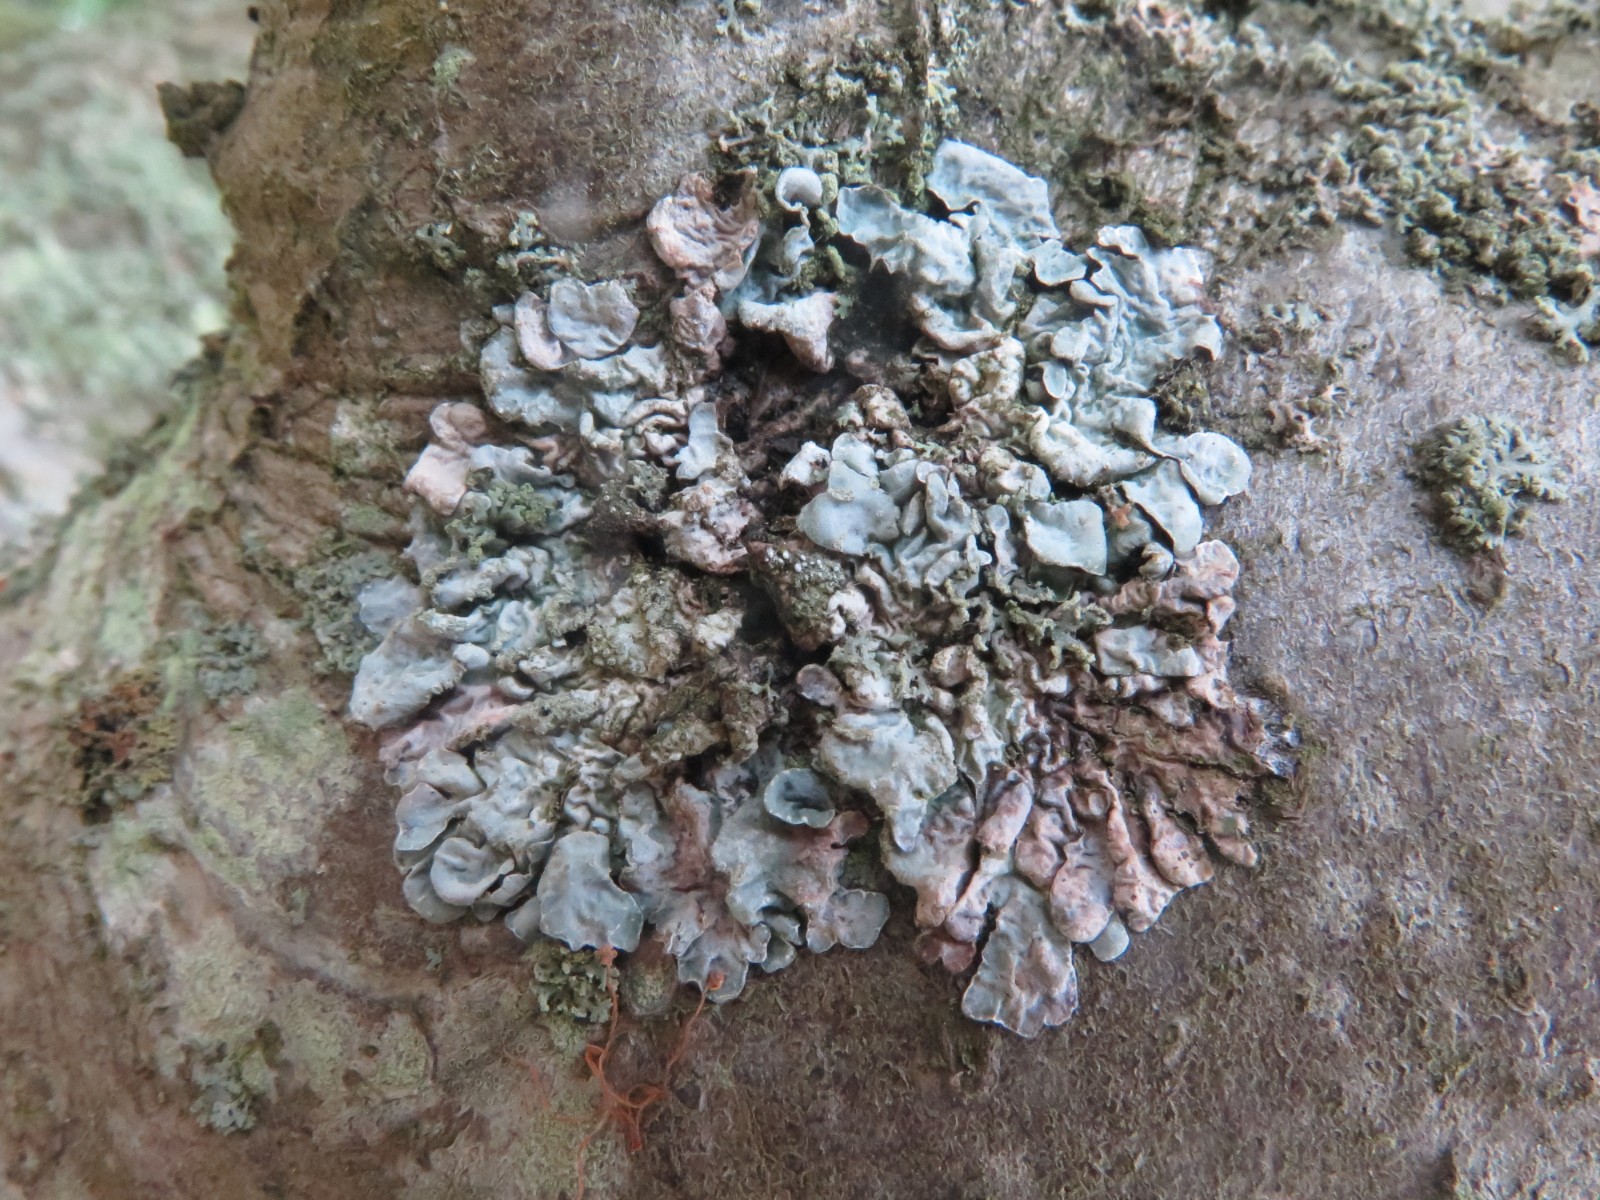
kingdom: Fungi
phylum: Ascomycota
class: Lecanoromycetes
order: Lecanorales
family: Parmeliaceae
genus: Parmelia
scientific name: Parmelia sulcata
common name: rynket skållav
